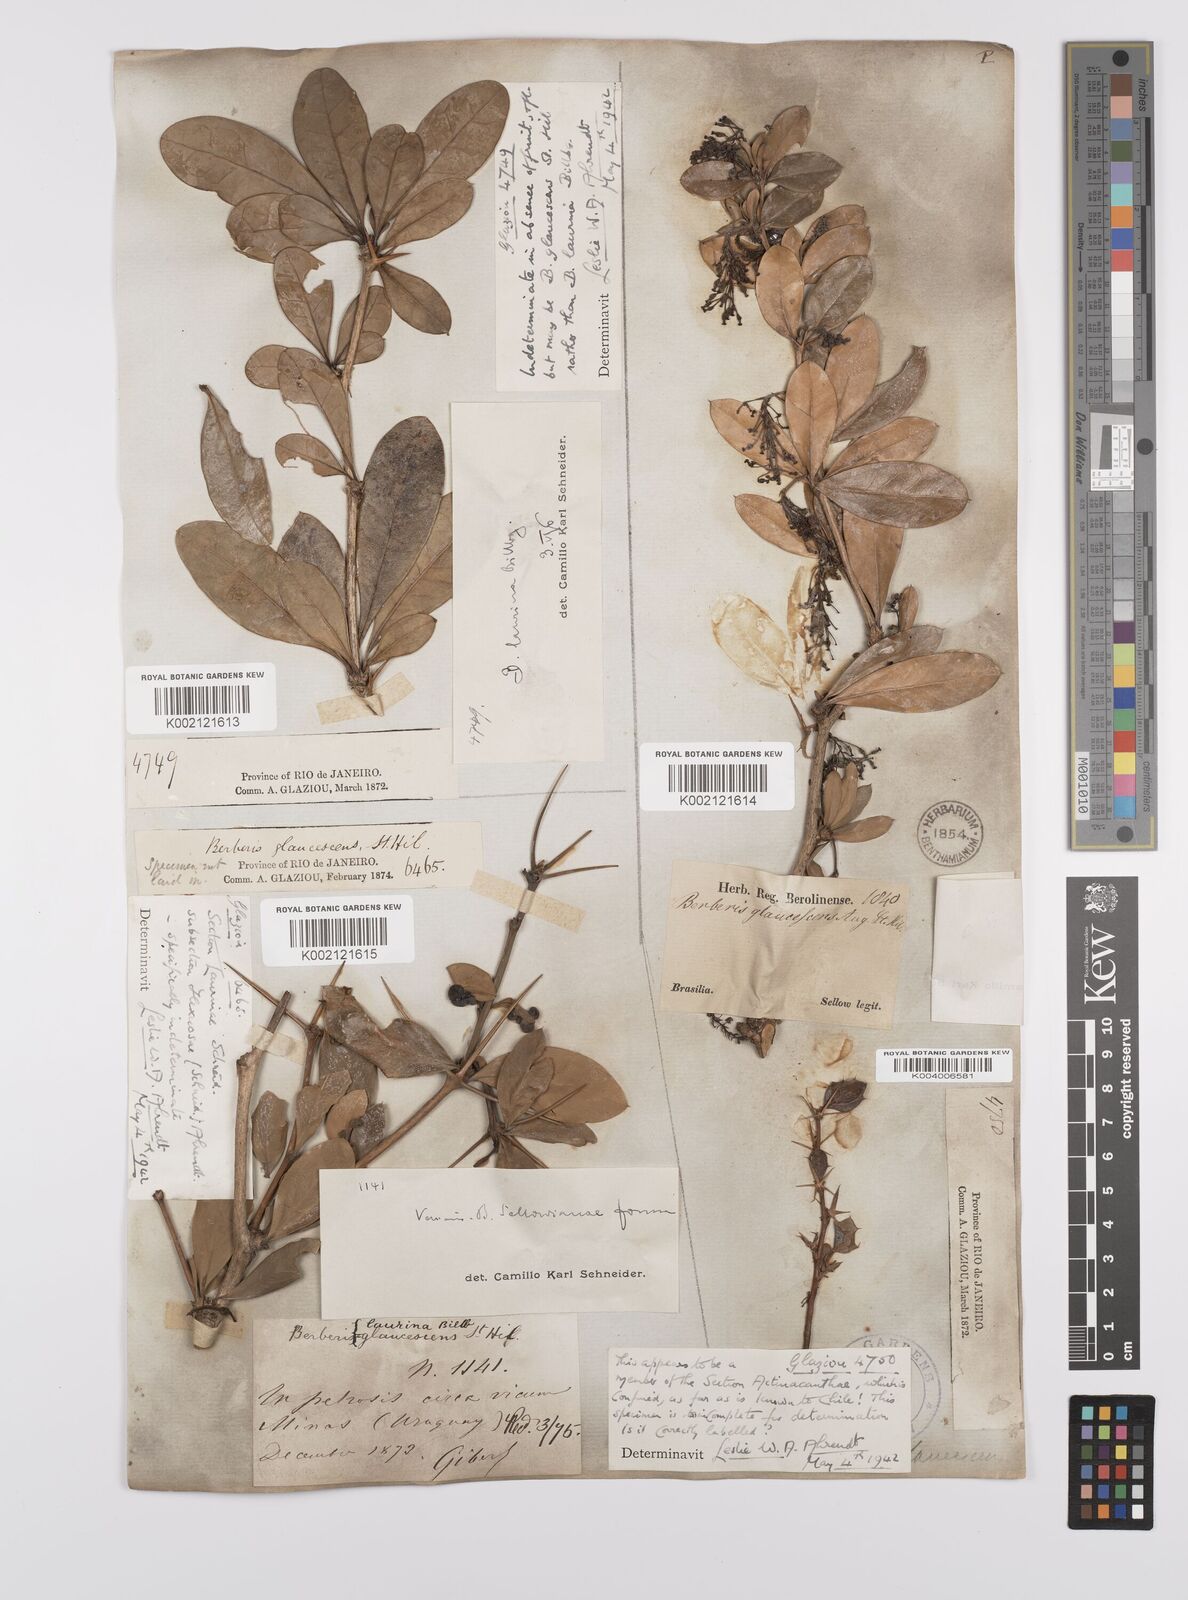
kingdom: Plantae
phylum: Tracheophyta
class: Magnoliopsida
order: Ranunculales
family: Berberidaceae
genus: Berberis
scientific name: Berberis laurina
